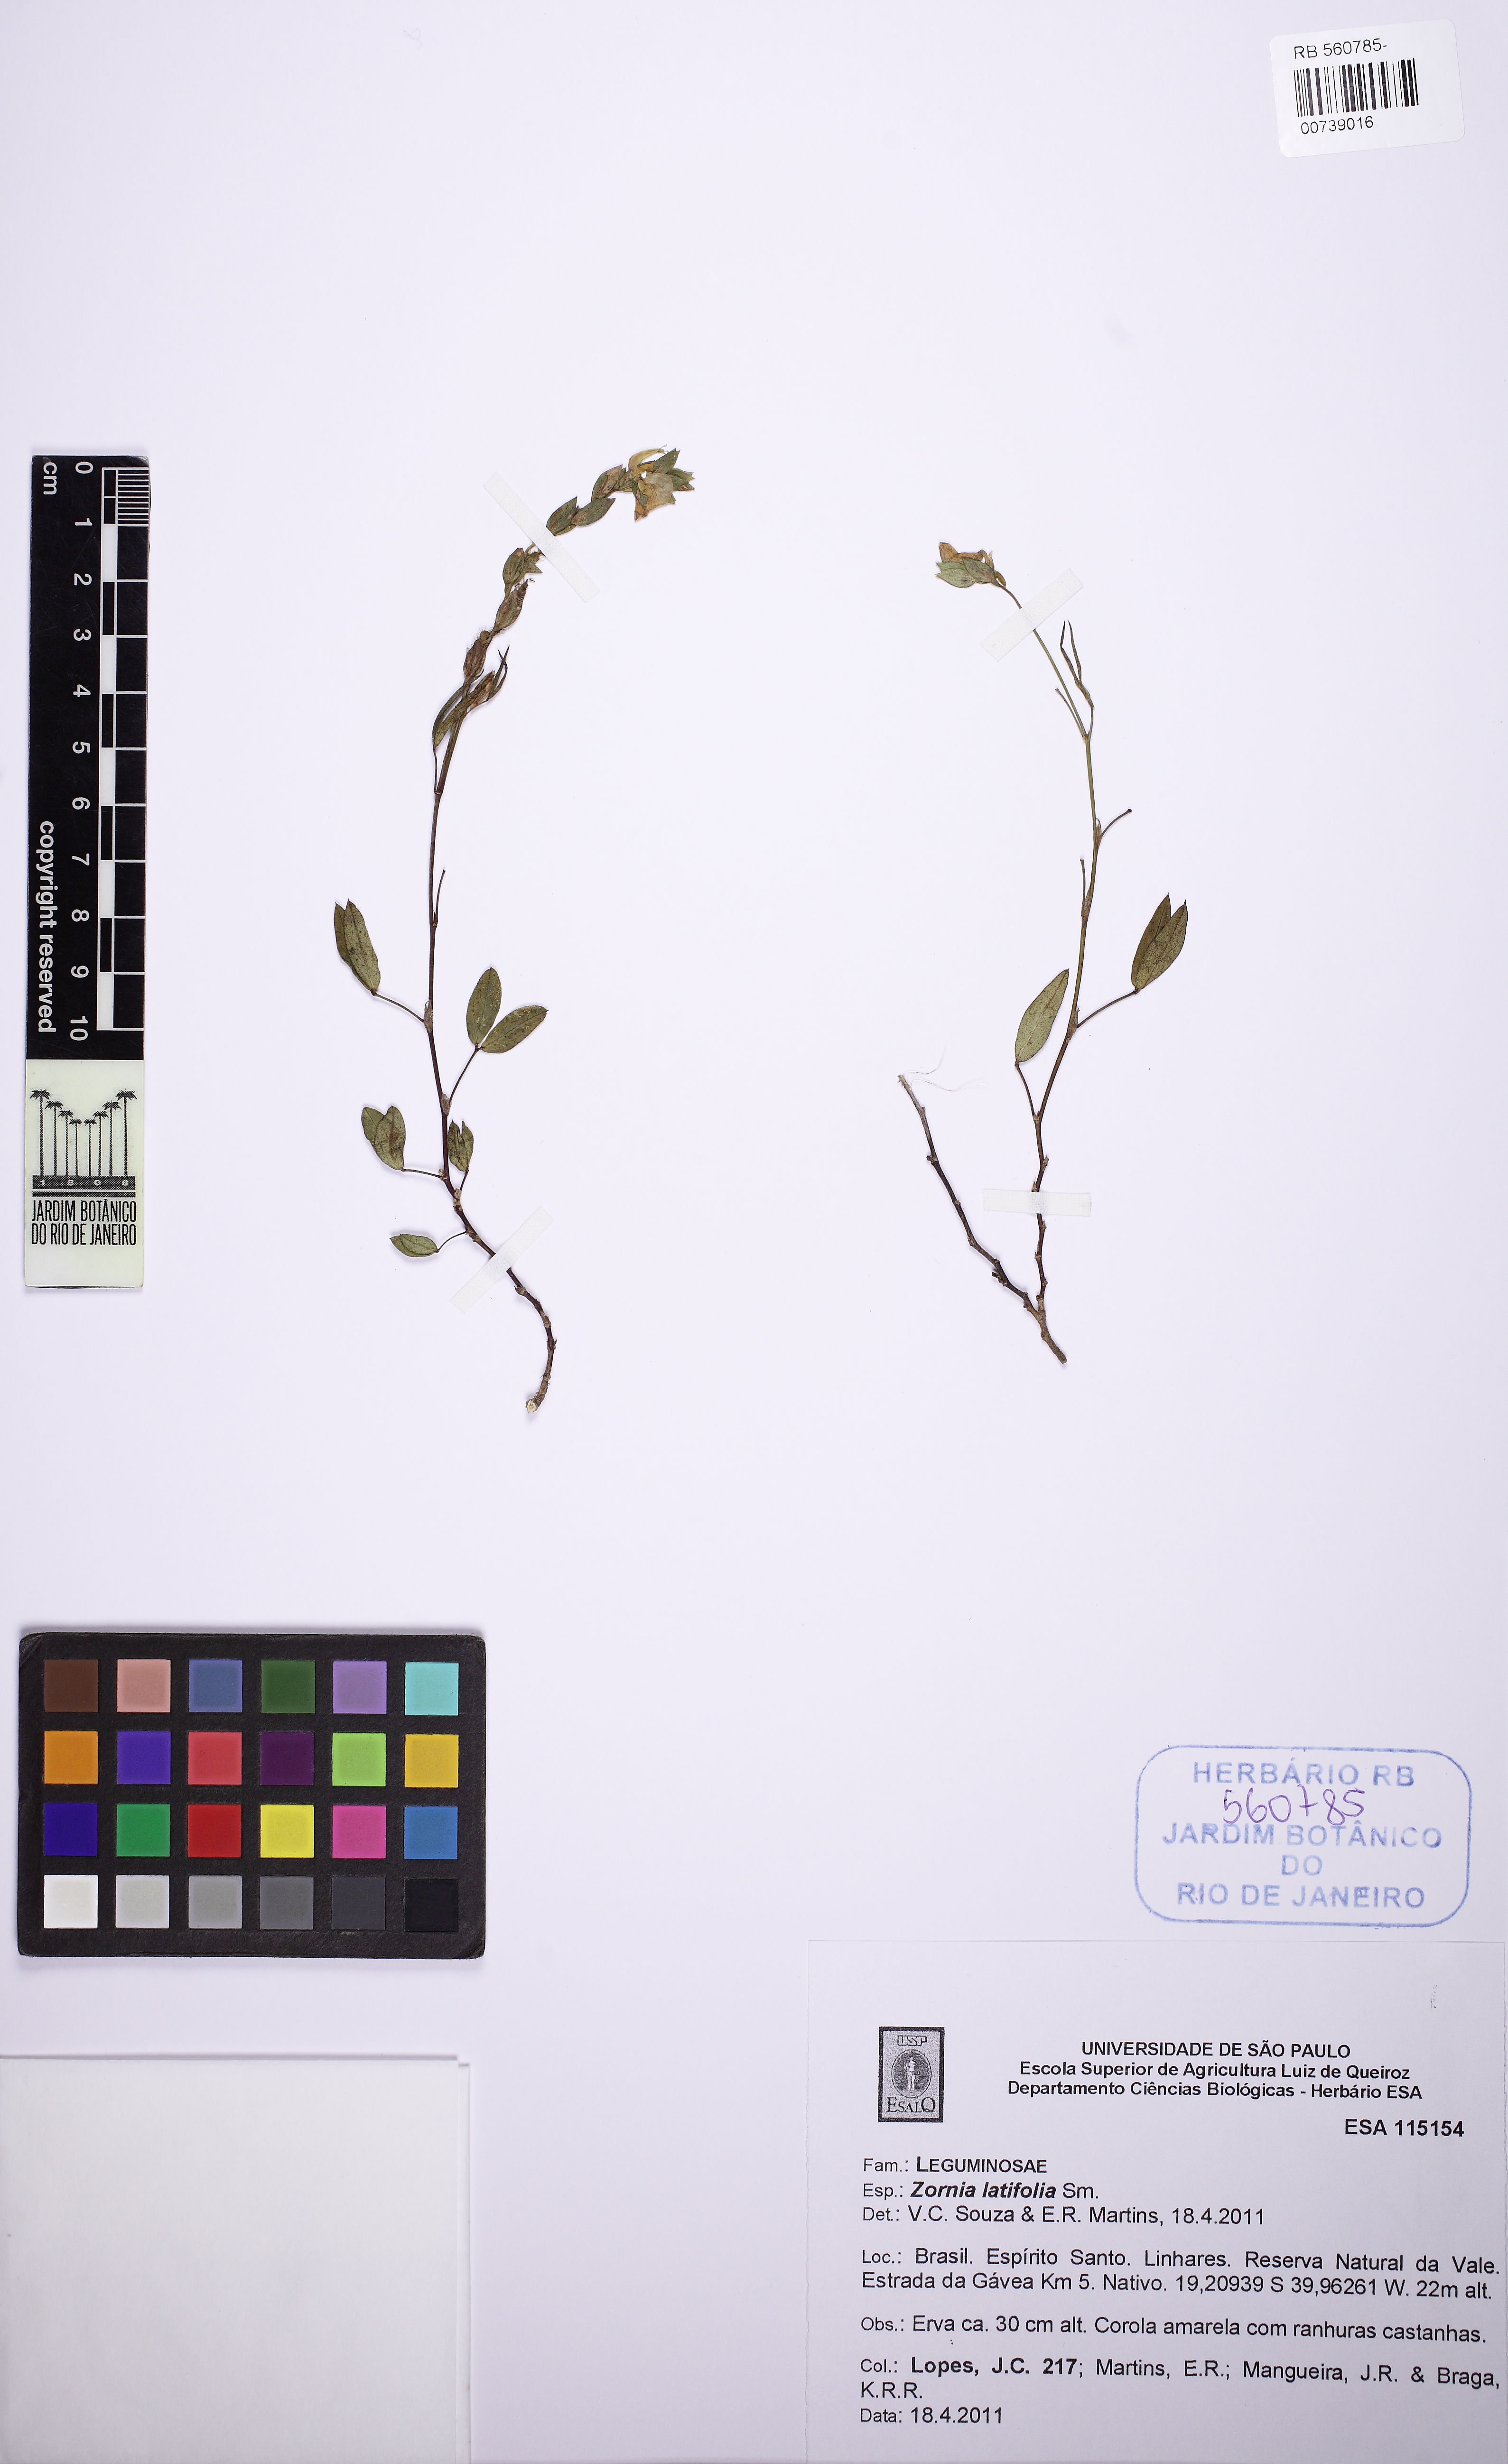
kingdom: Plantae
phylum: Tracheophyta
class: Magnoliopsida
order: Fabales
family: Fabaceae
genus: Zornia
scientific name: Zornia curvata
